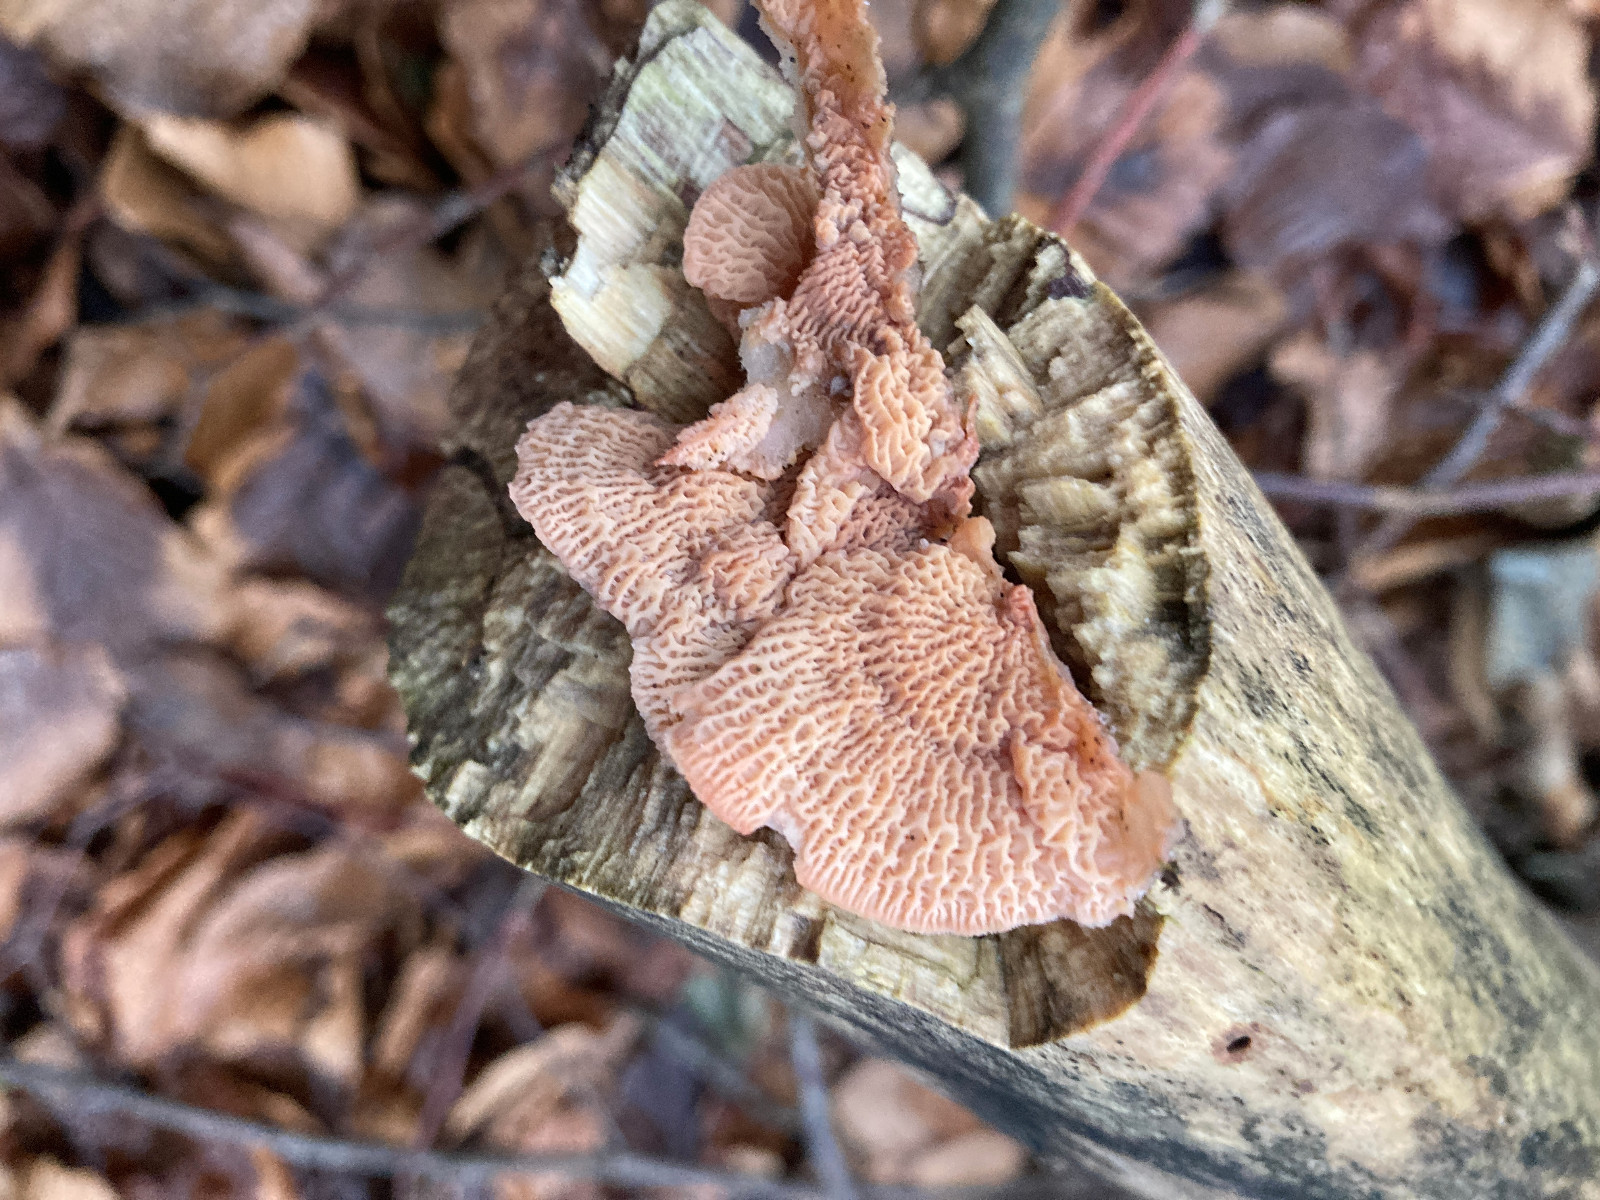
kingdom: Fungi
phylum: Basidiomycota
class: Agaricomycetes
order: Polyporales
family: Meruliaceae
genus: Phlebia
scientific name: Phlebia tremellosa
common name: bævrende åresvamp
